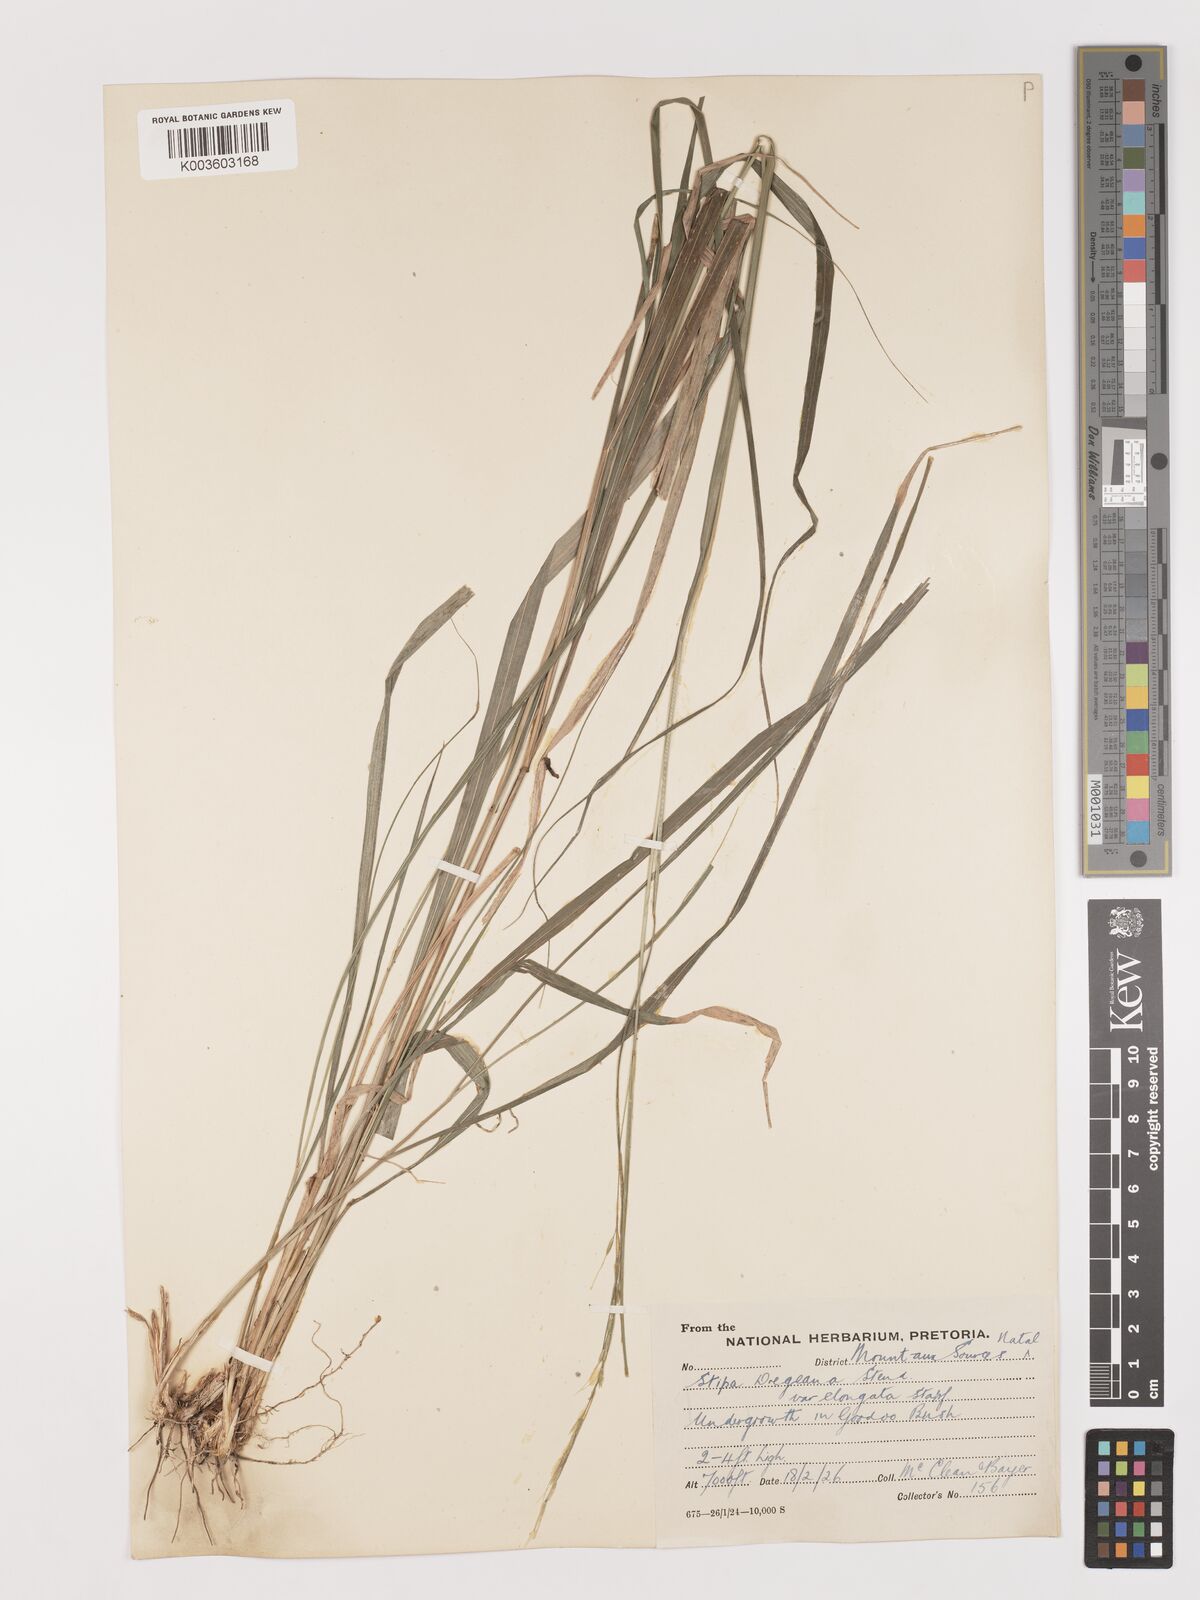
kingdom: Plantae
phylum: Tracheophyta
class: Liliopsida
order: Poales
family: Poaceae
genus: Stipa
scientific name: Stipa dregeana
